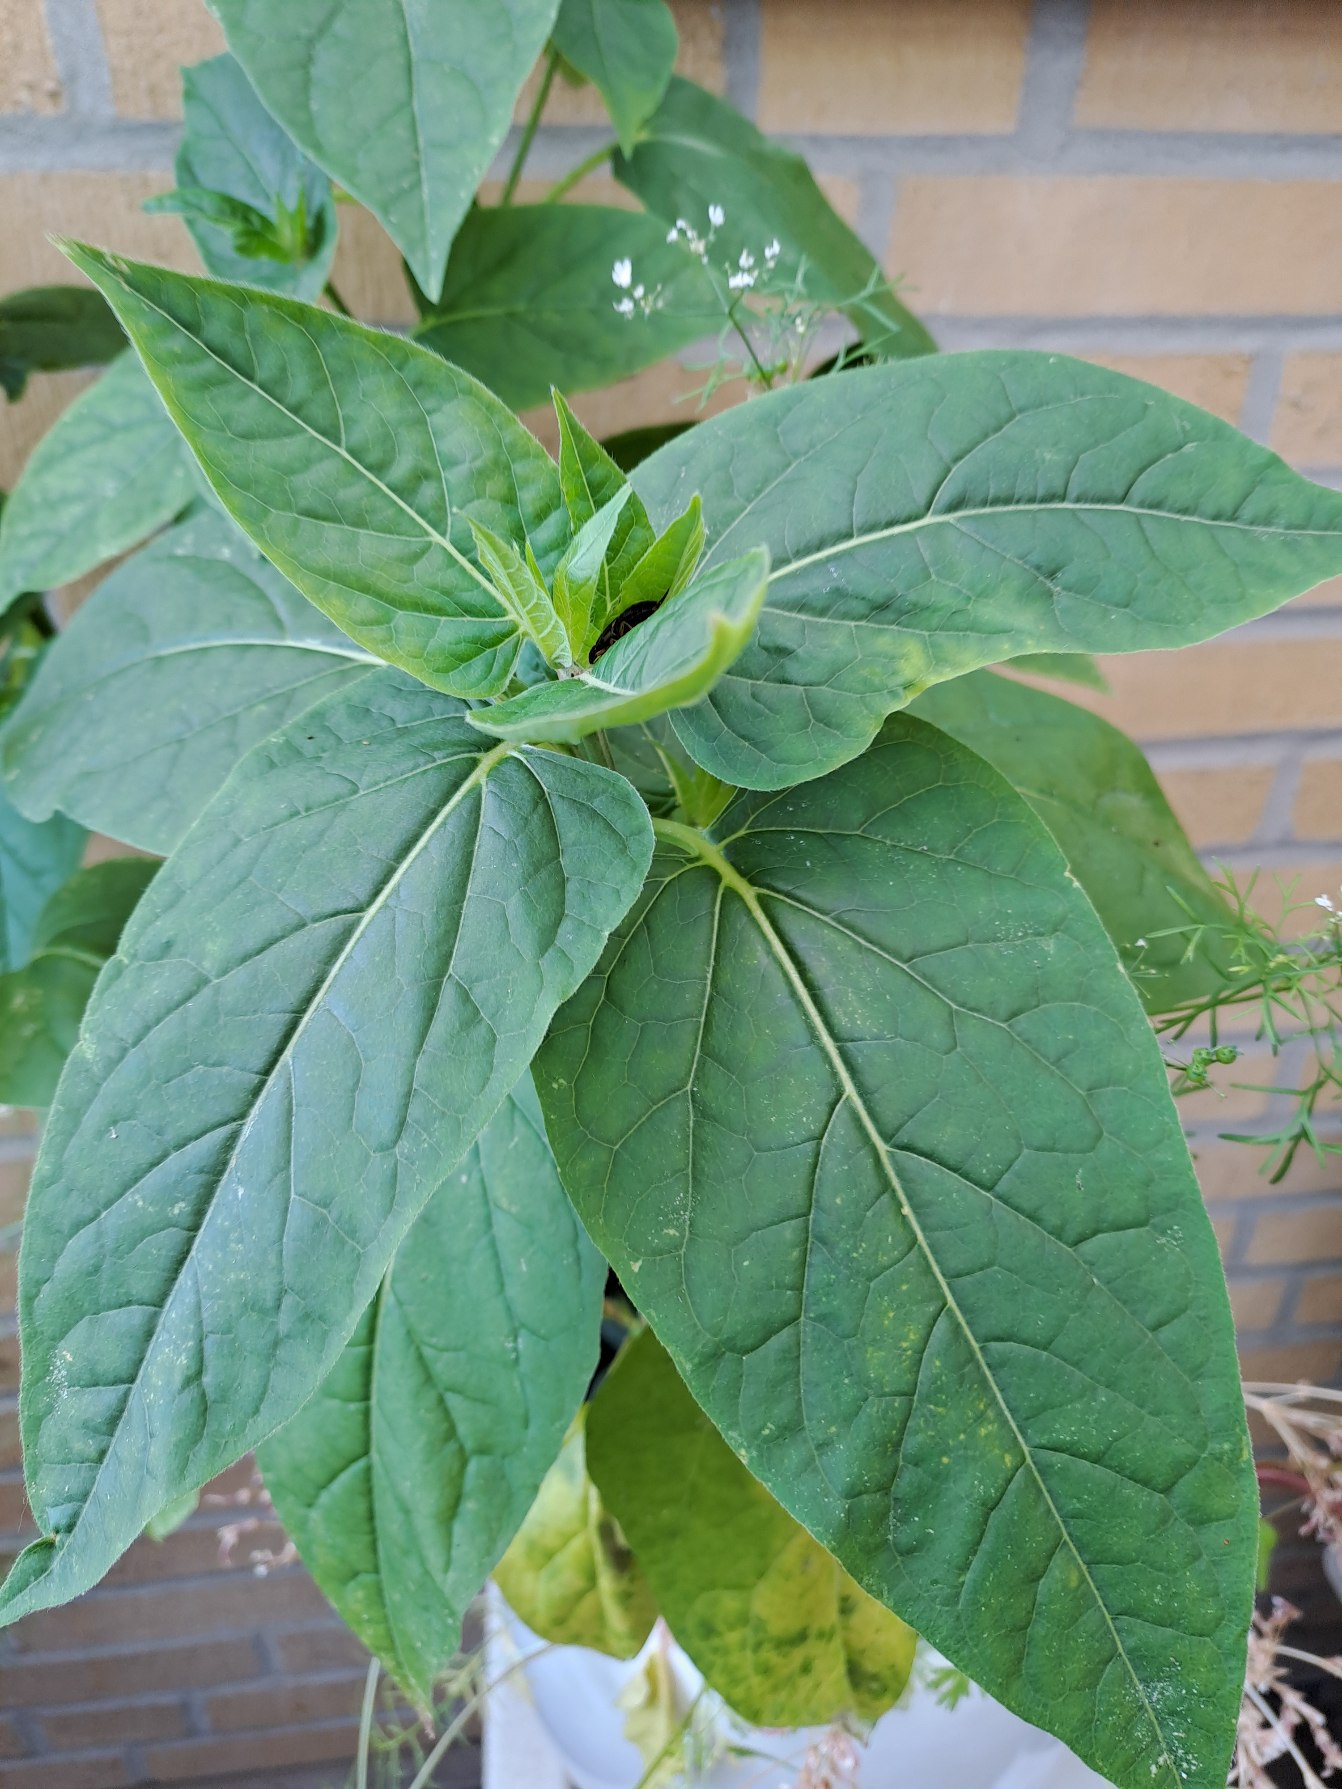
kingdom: Plantae
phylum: Tracheophyta
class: Magnoliopsida
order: Caryophyllales
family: Nyctaginaceae
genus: Mirabilis
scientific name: Mirabilis jalapa
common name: Vidunderblomst
